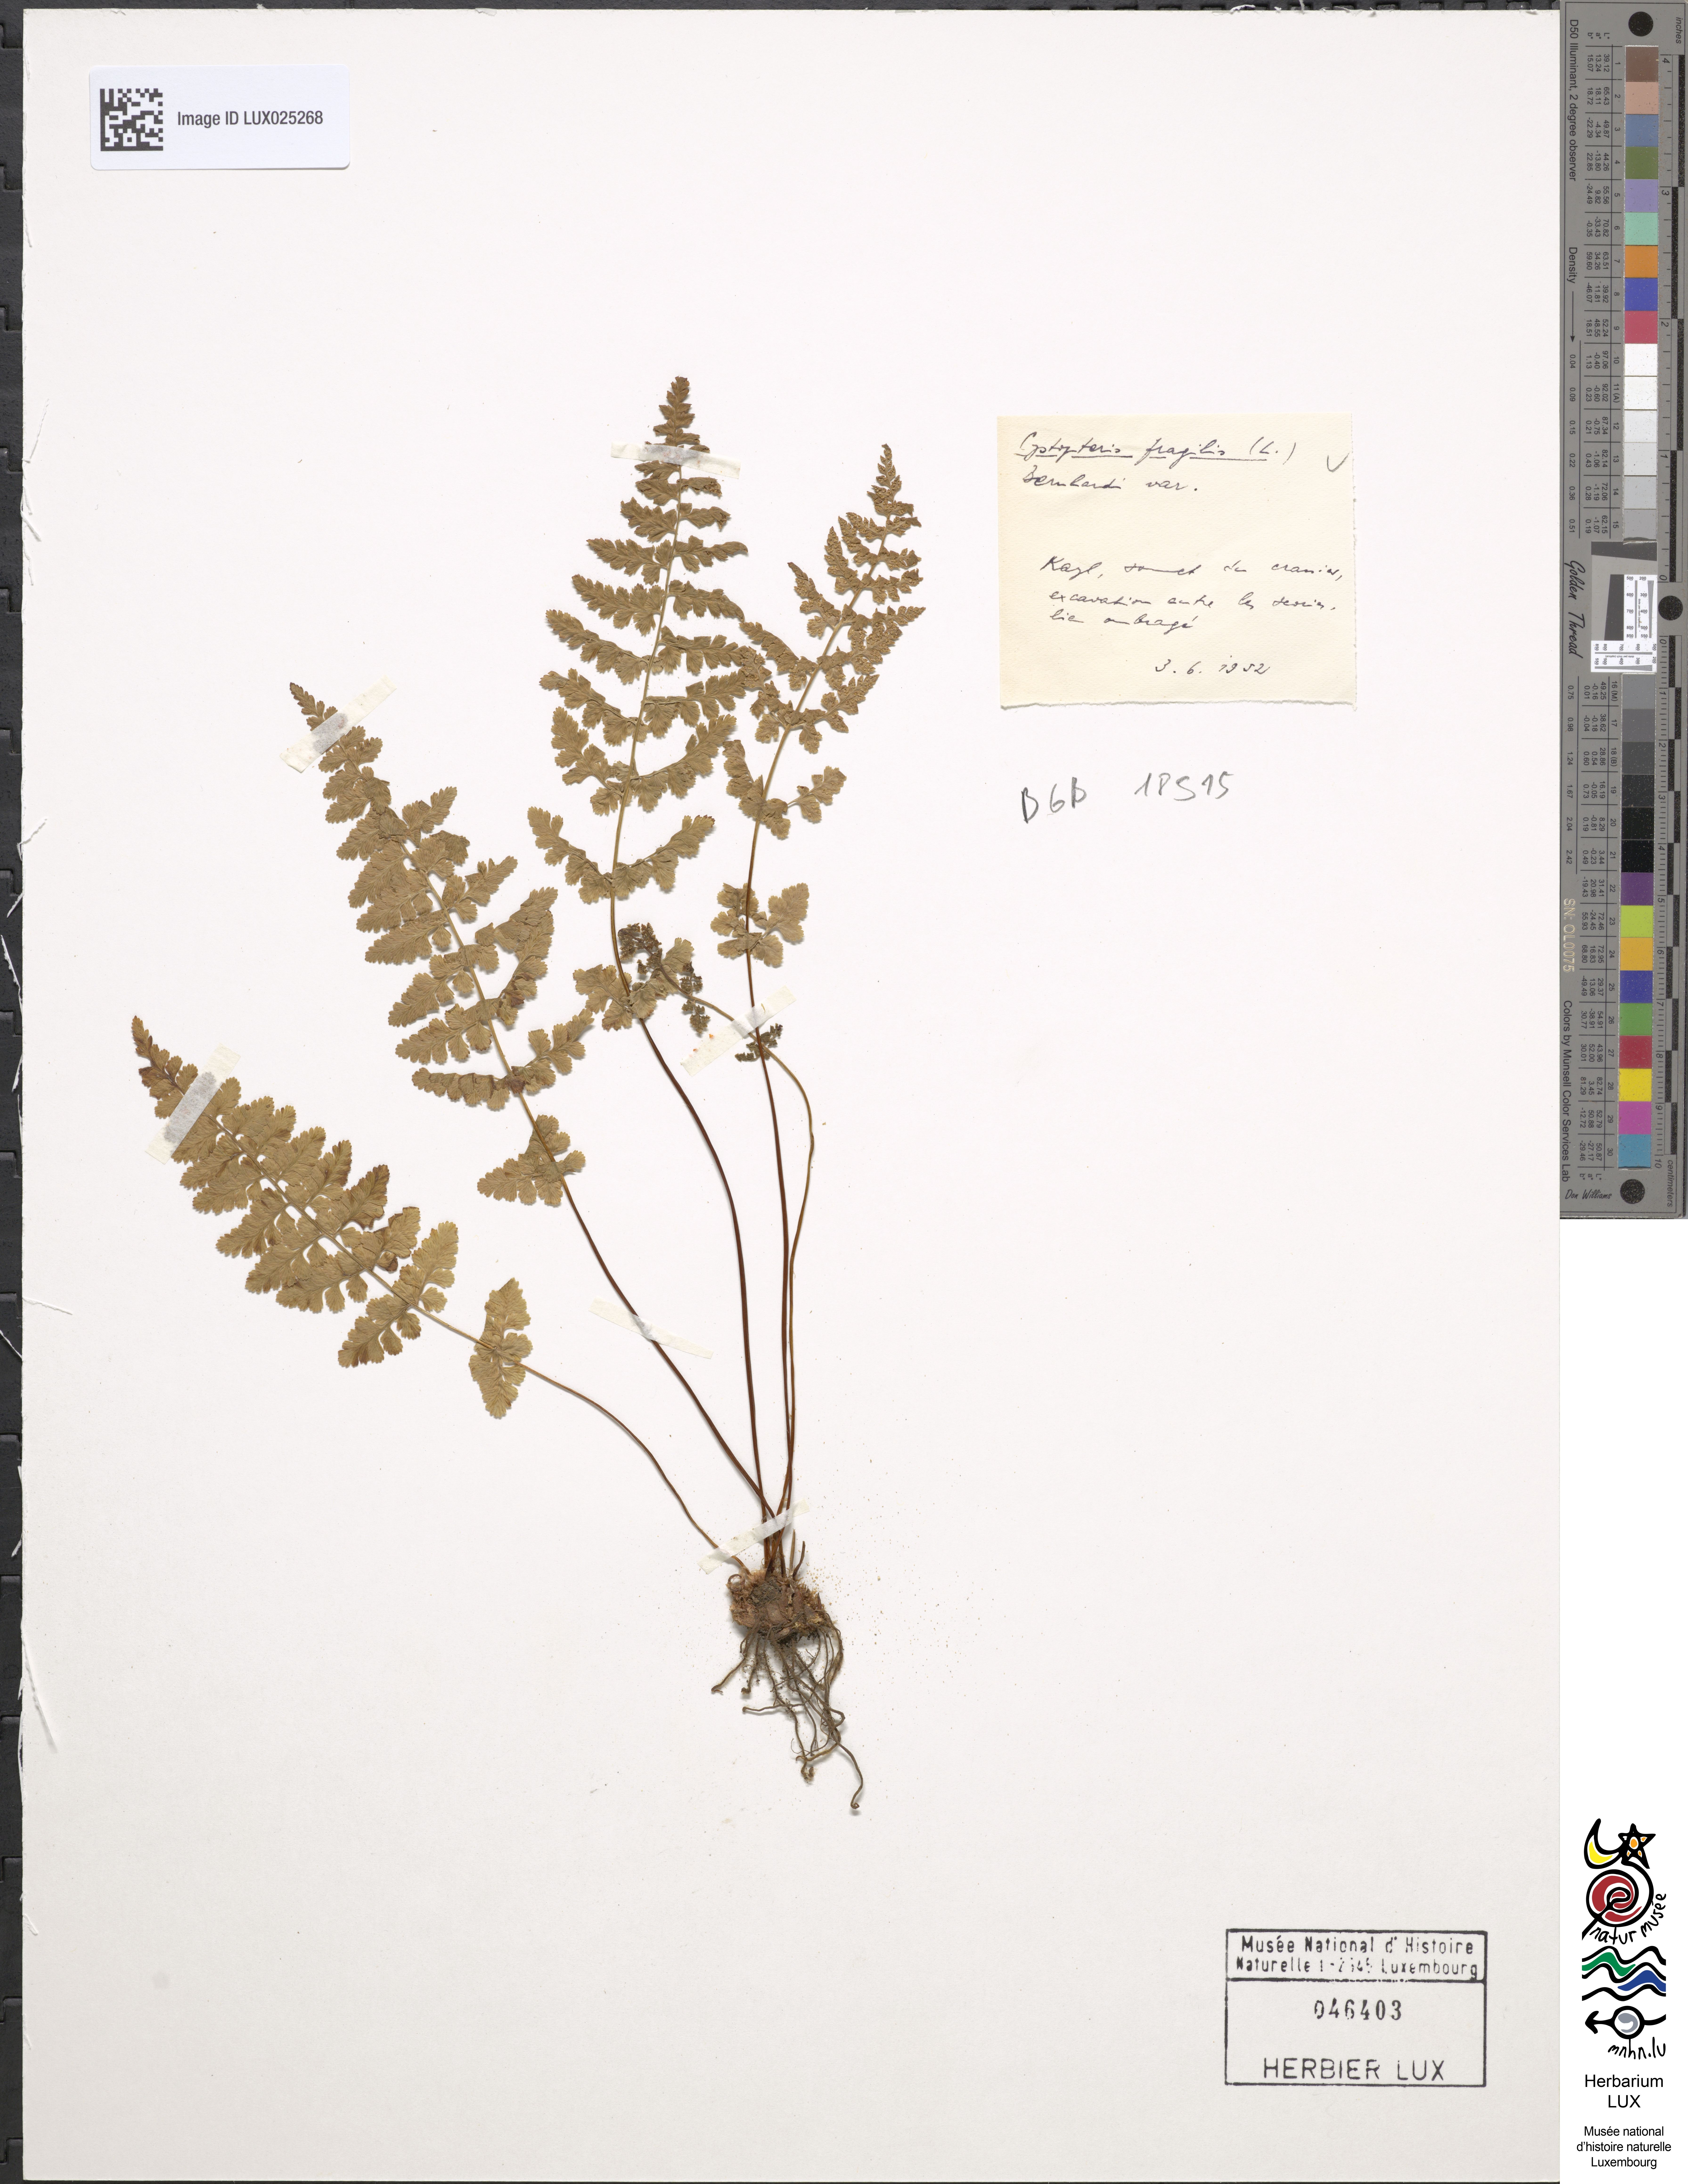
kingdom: Plantae
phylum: Tracheophyta
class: Polypodiopsida
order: Polypodiales
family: Cystopteridaceae
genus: Cystopteris
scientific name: Cystopteris fragilis
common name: Brittle bladder fern
